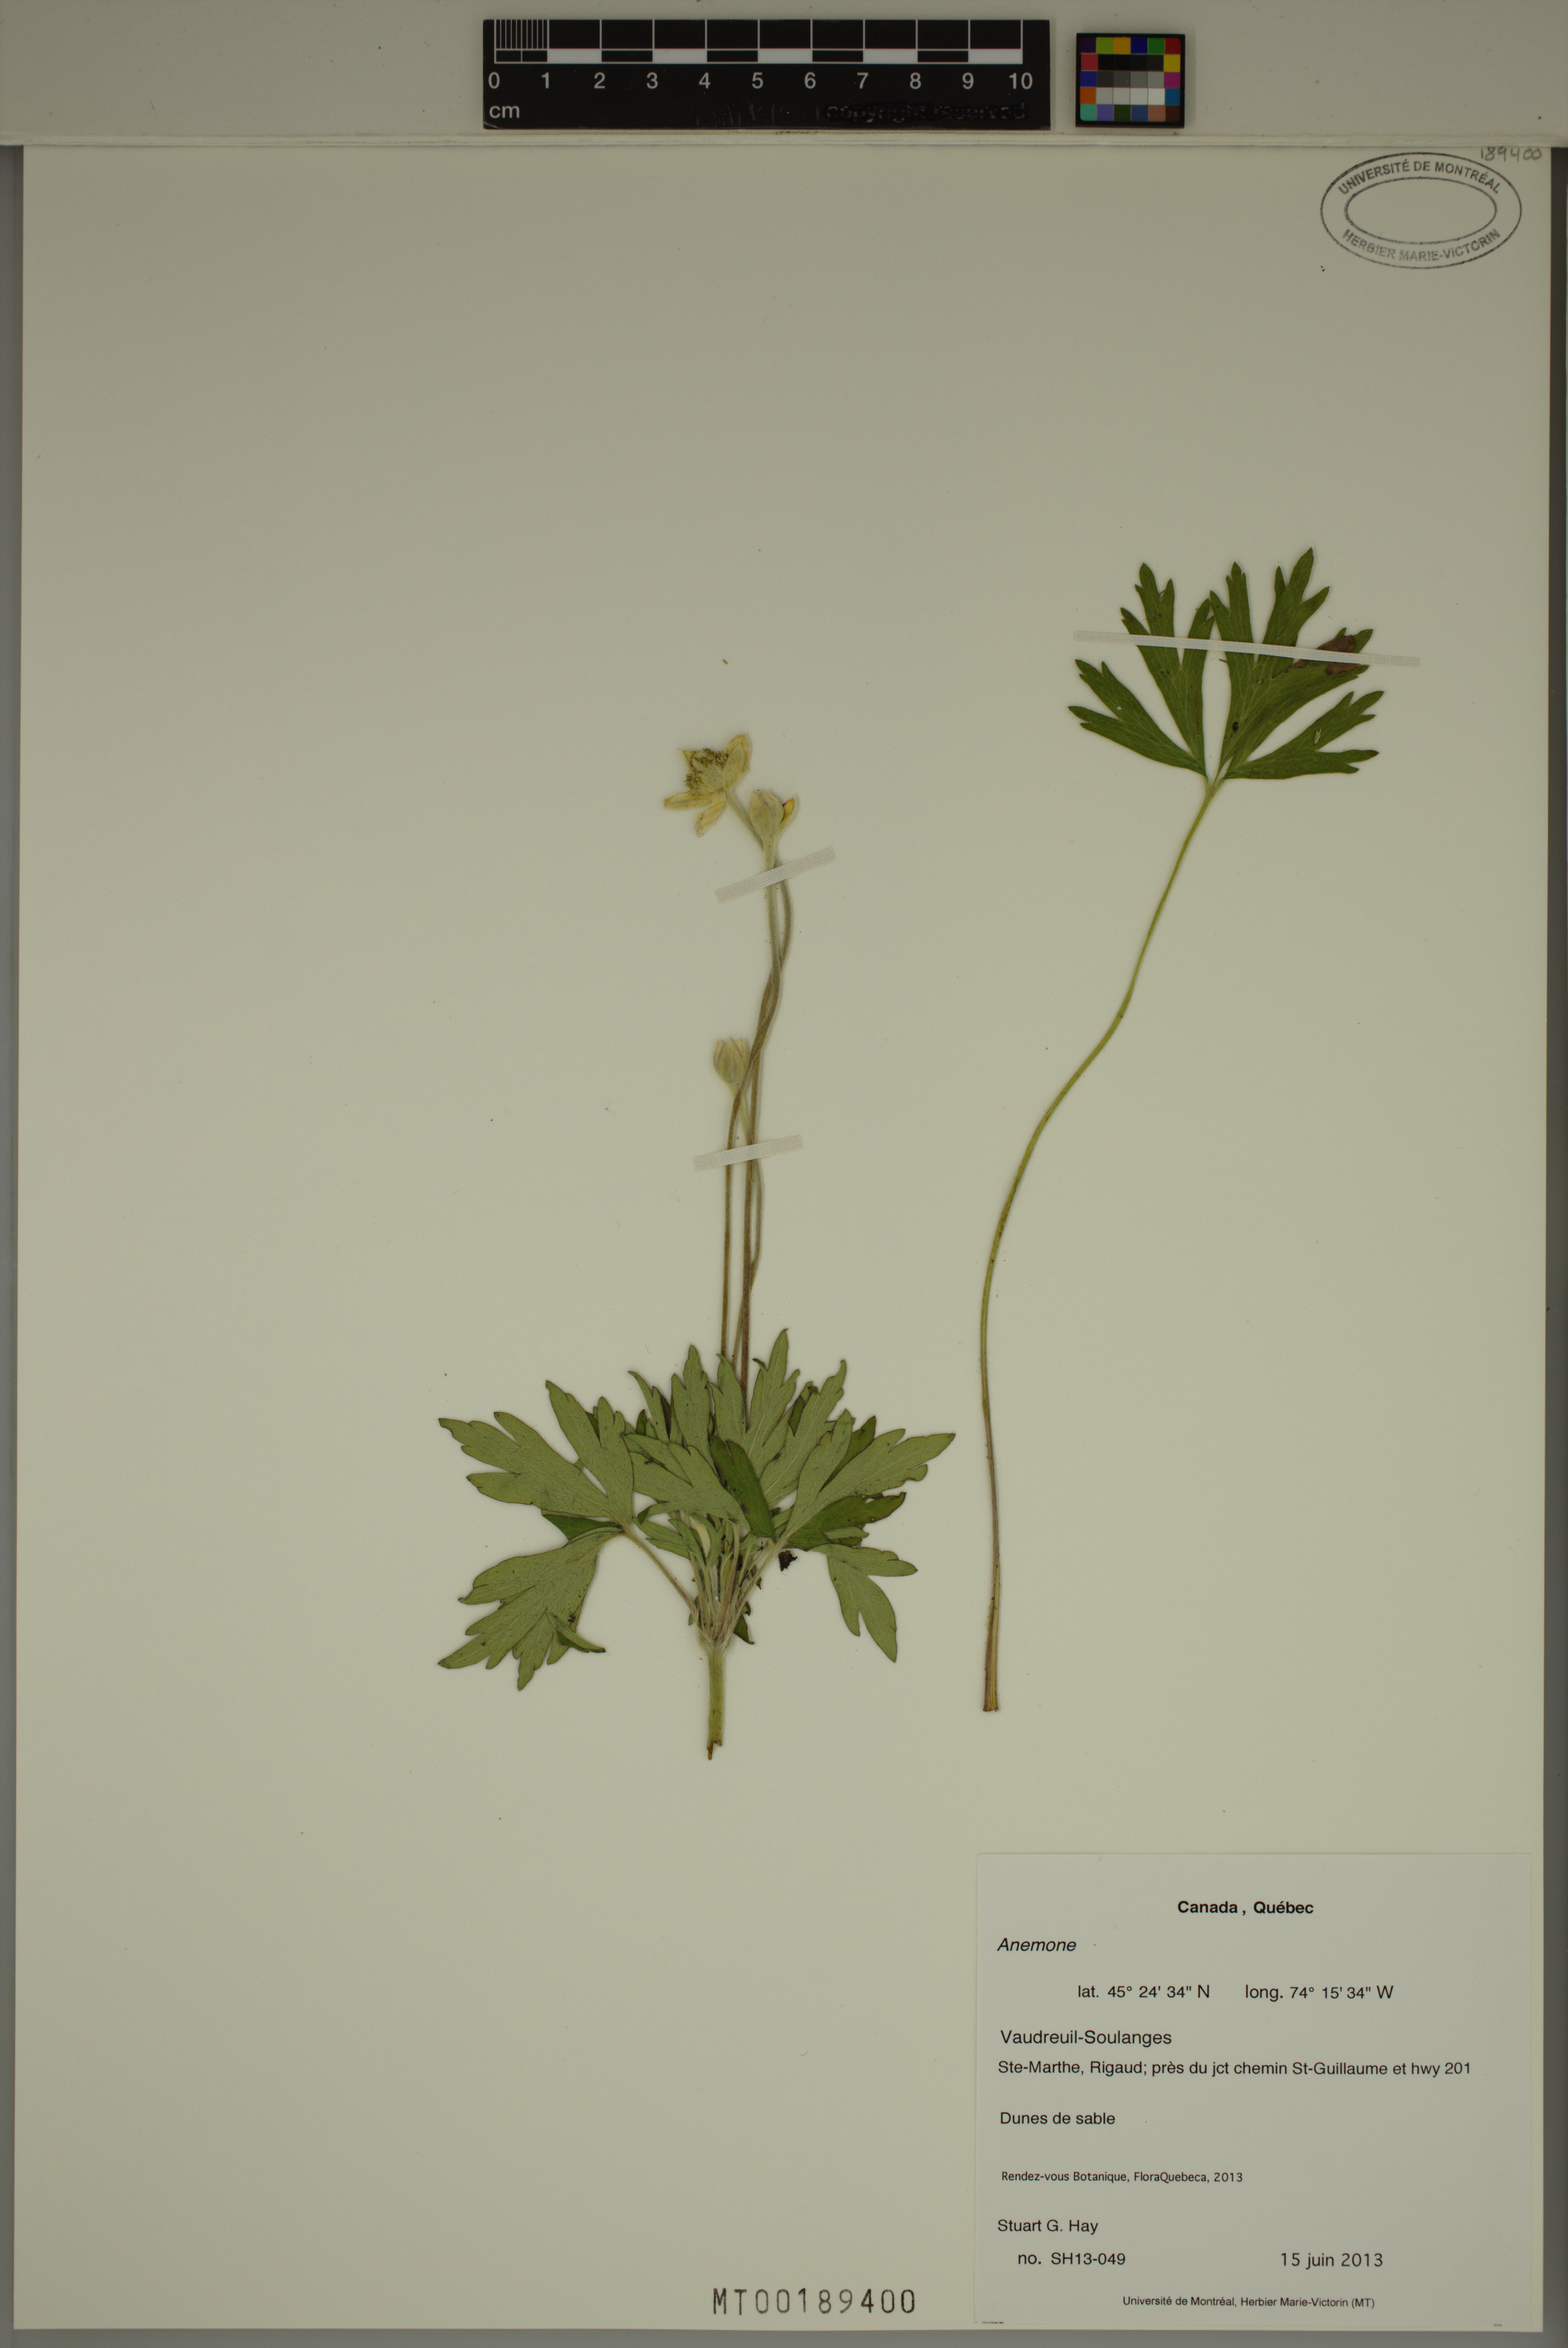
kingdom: Plantae
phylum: Tracheophyta
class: Magnoliopsida
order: Ranunculales
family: Ranunculaceae
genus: Anemone
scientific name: Anemone
